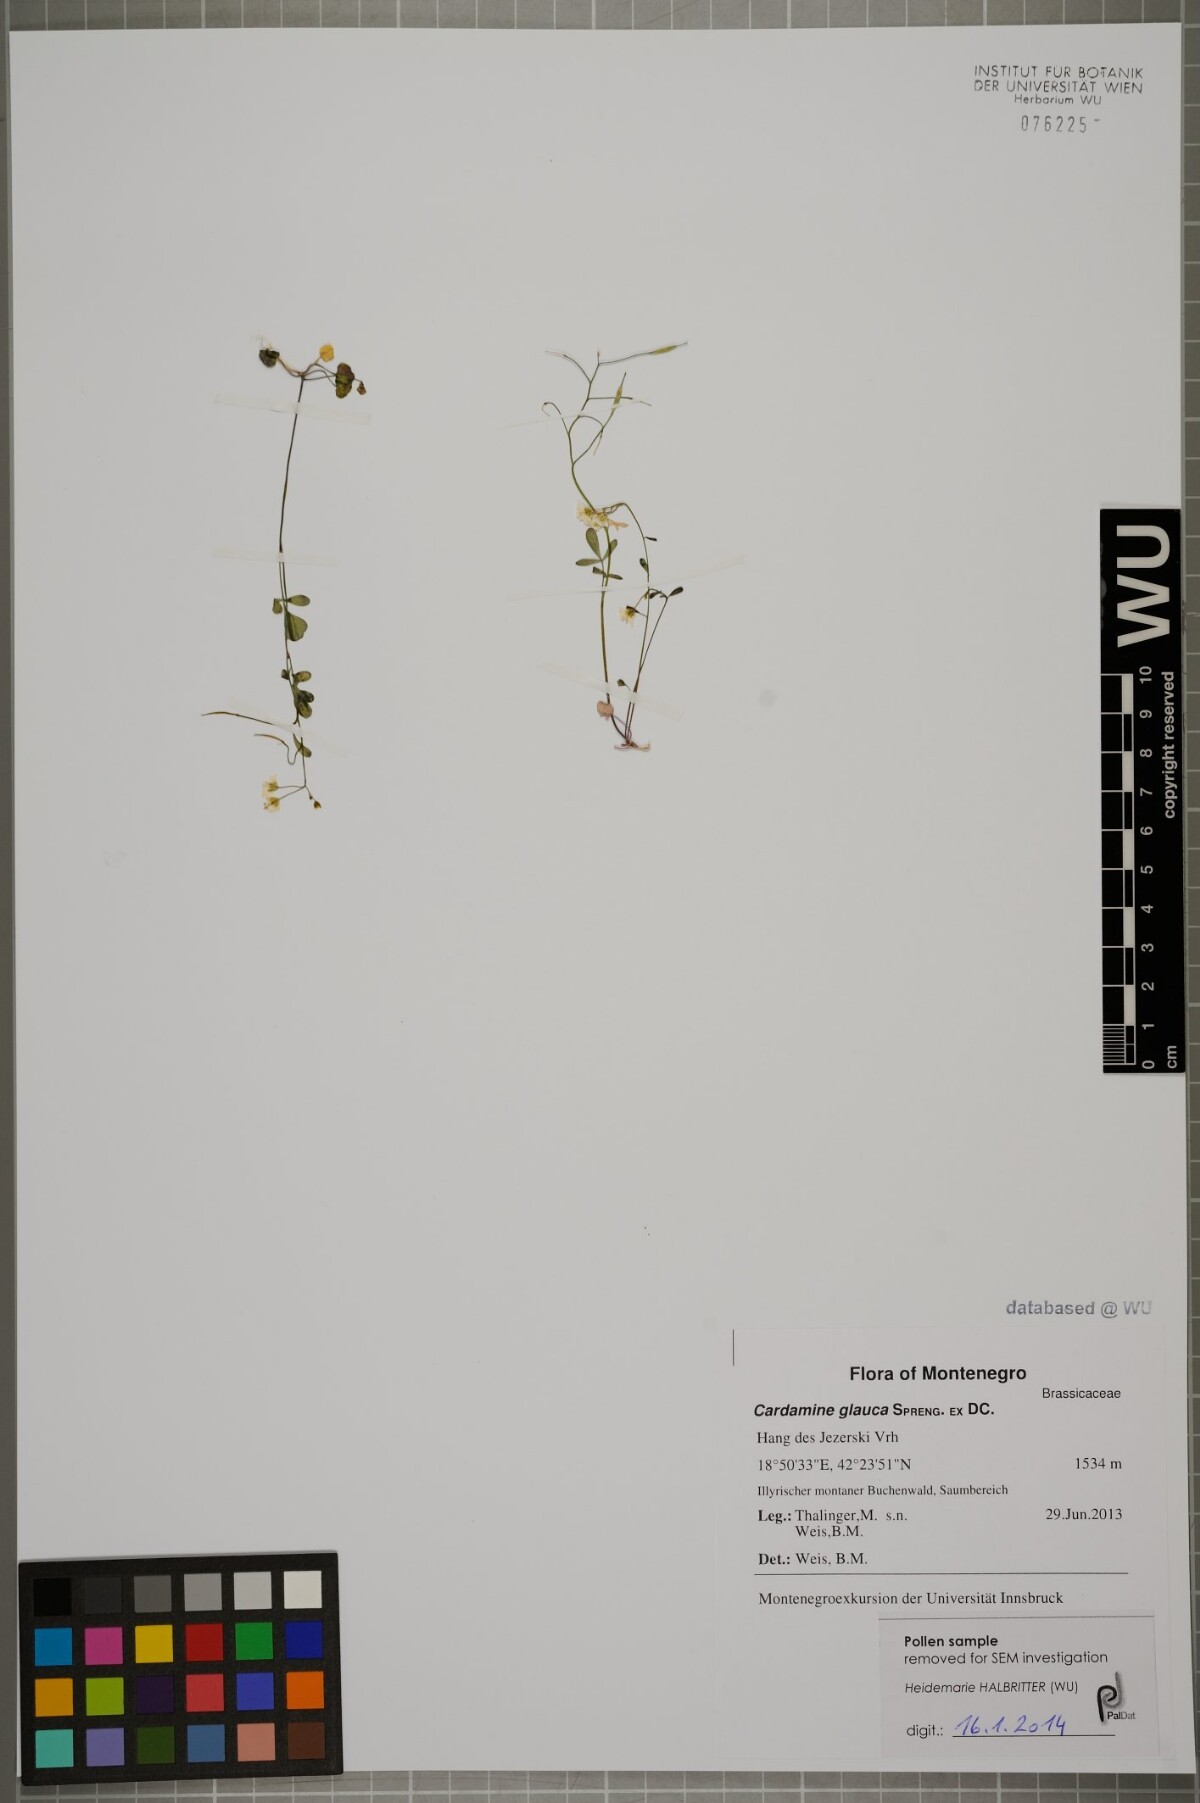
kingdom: Plantae
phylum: Tracheophyta
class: Magnoliopsida
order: Brassicales
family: Brassicaceae
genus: Cardamine
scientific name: Cardamine glauca
